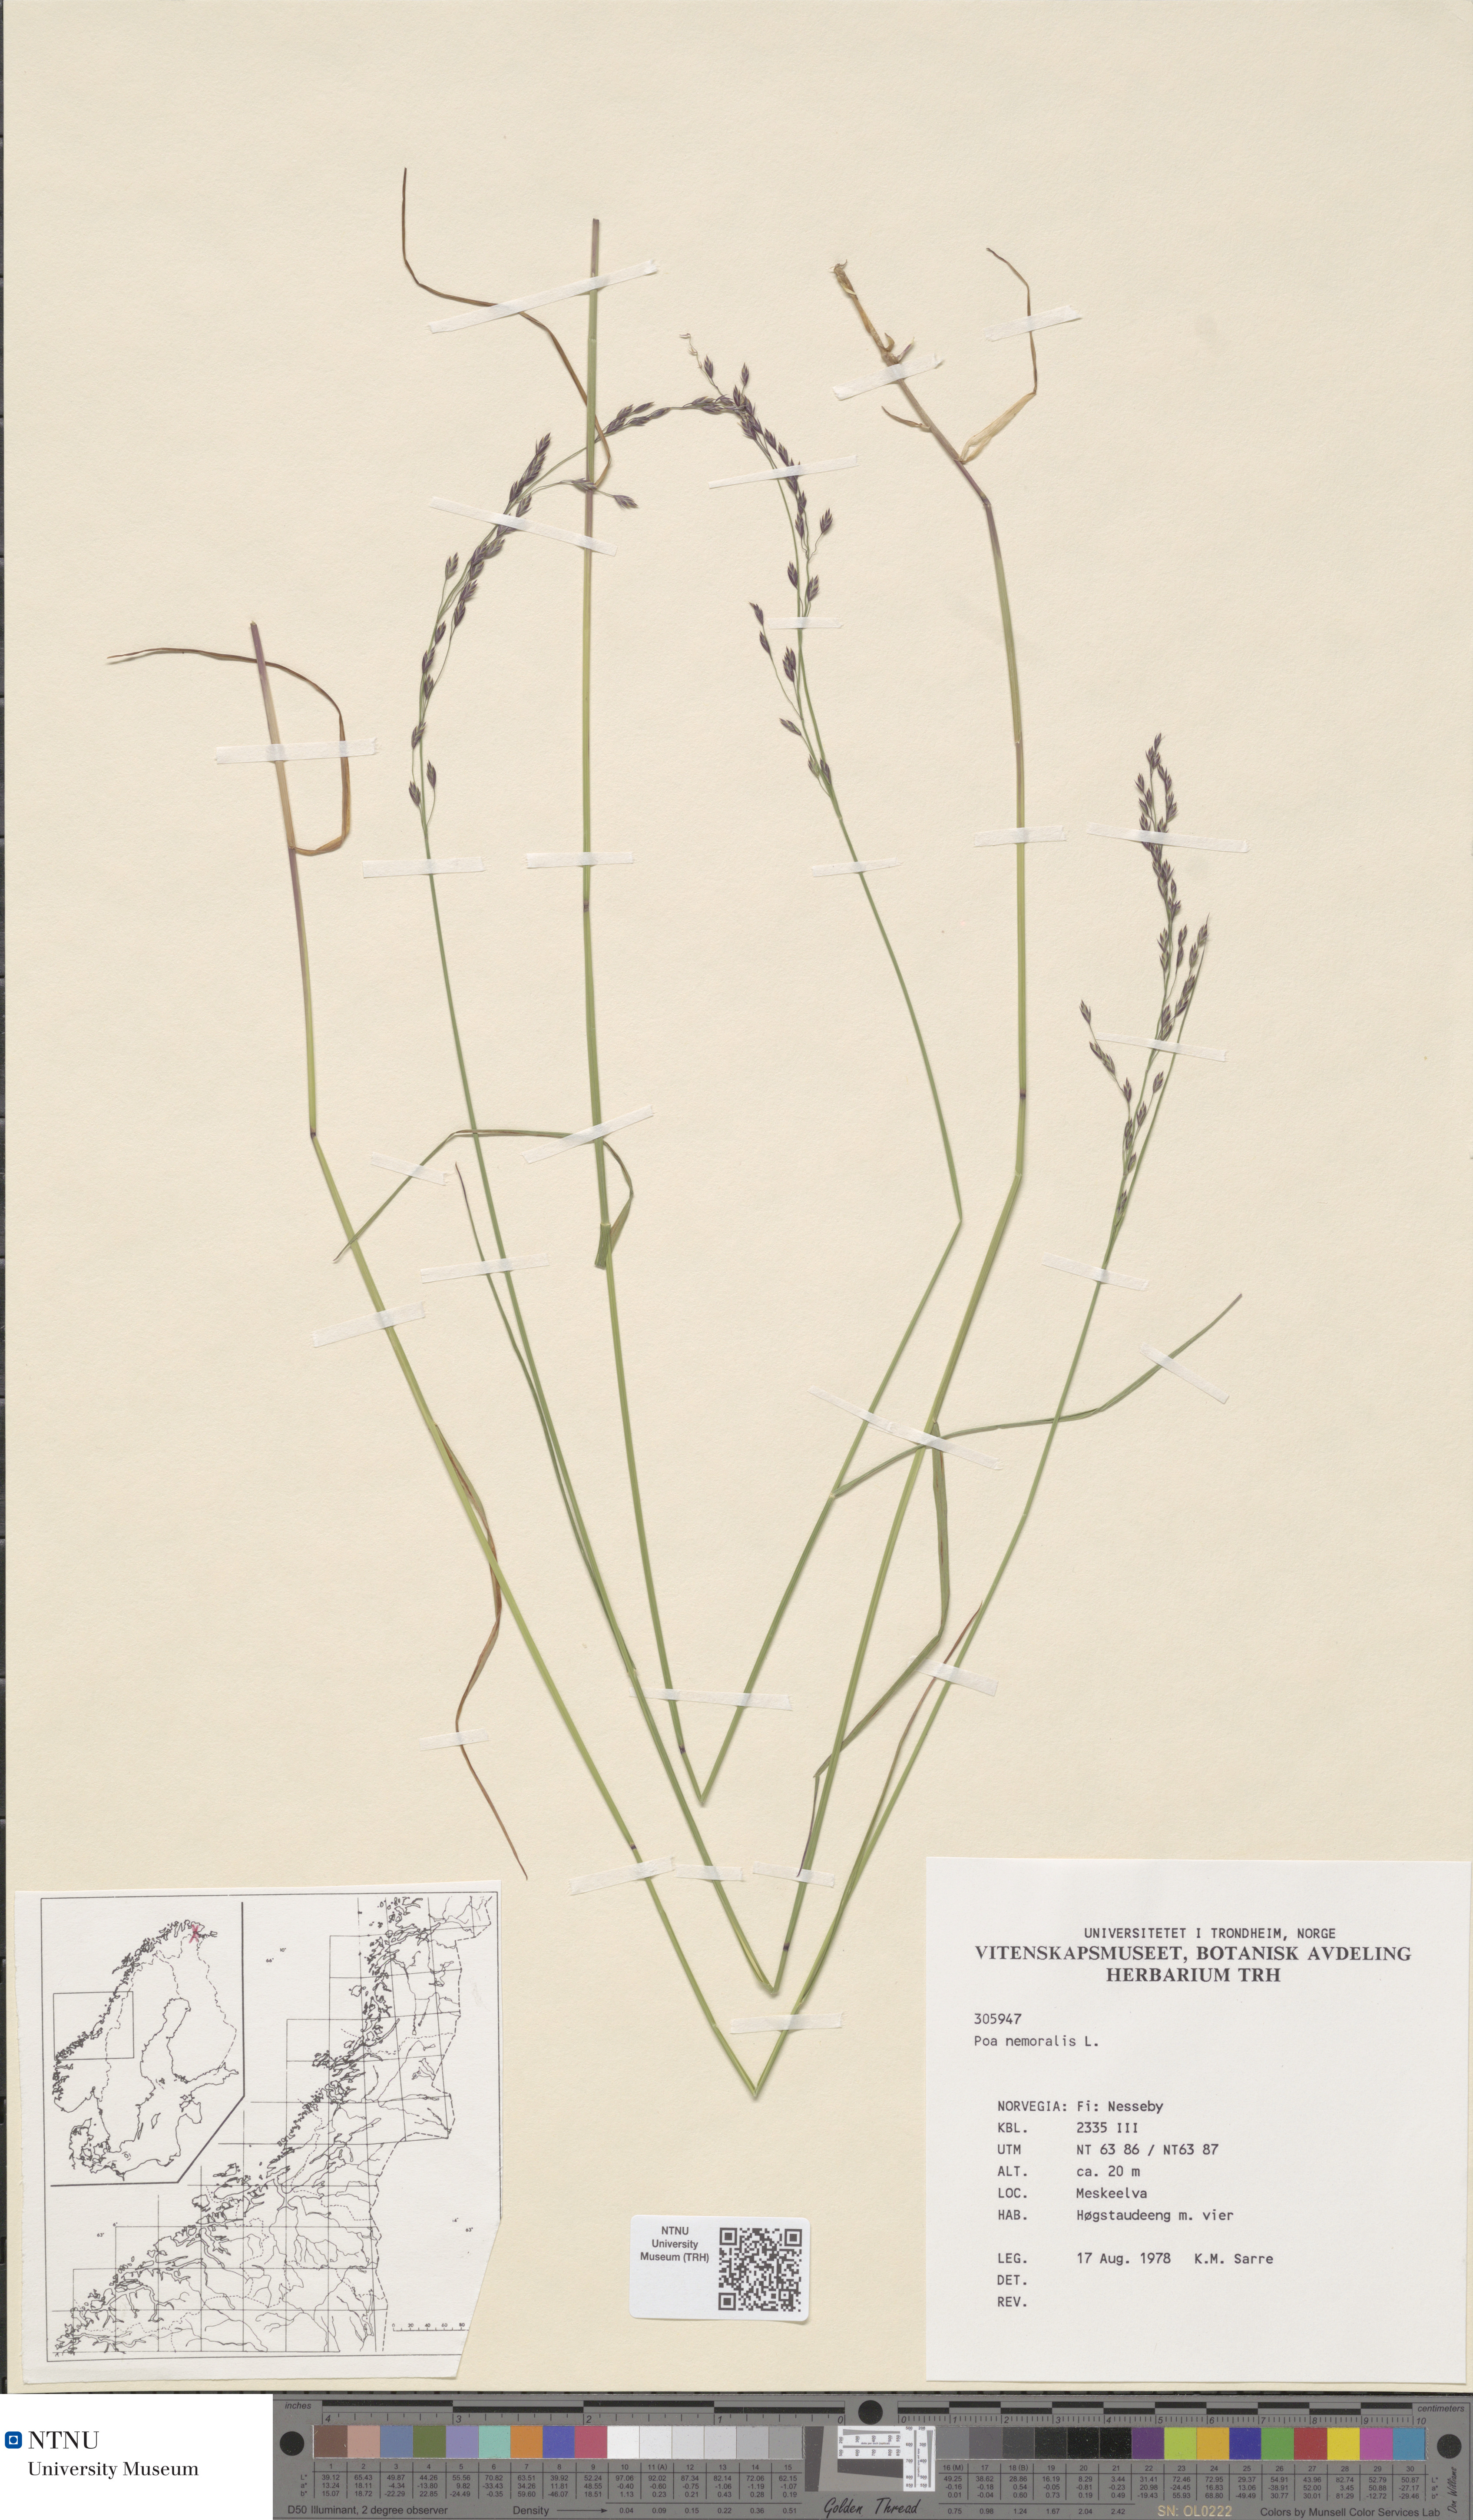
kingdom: Plantae
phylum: Tracheophyta
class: Liliopsida
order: Poales
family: Poaceae
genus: Poa
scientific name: Poa nemoralis
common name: Wood bluegrass
